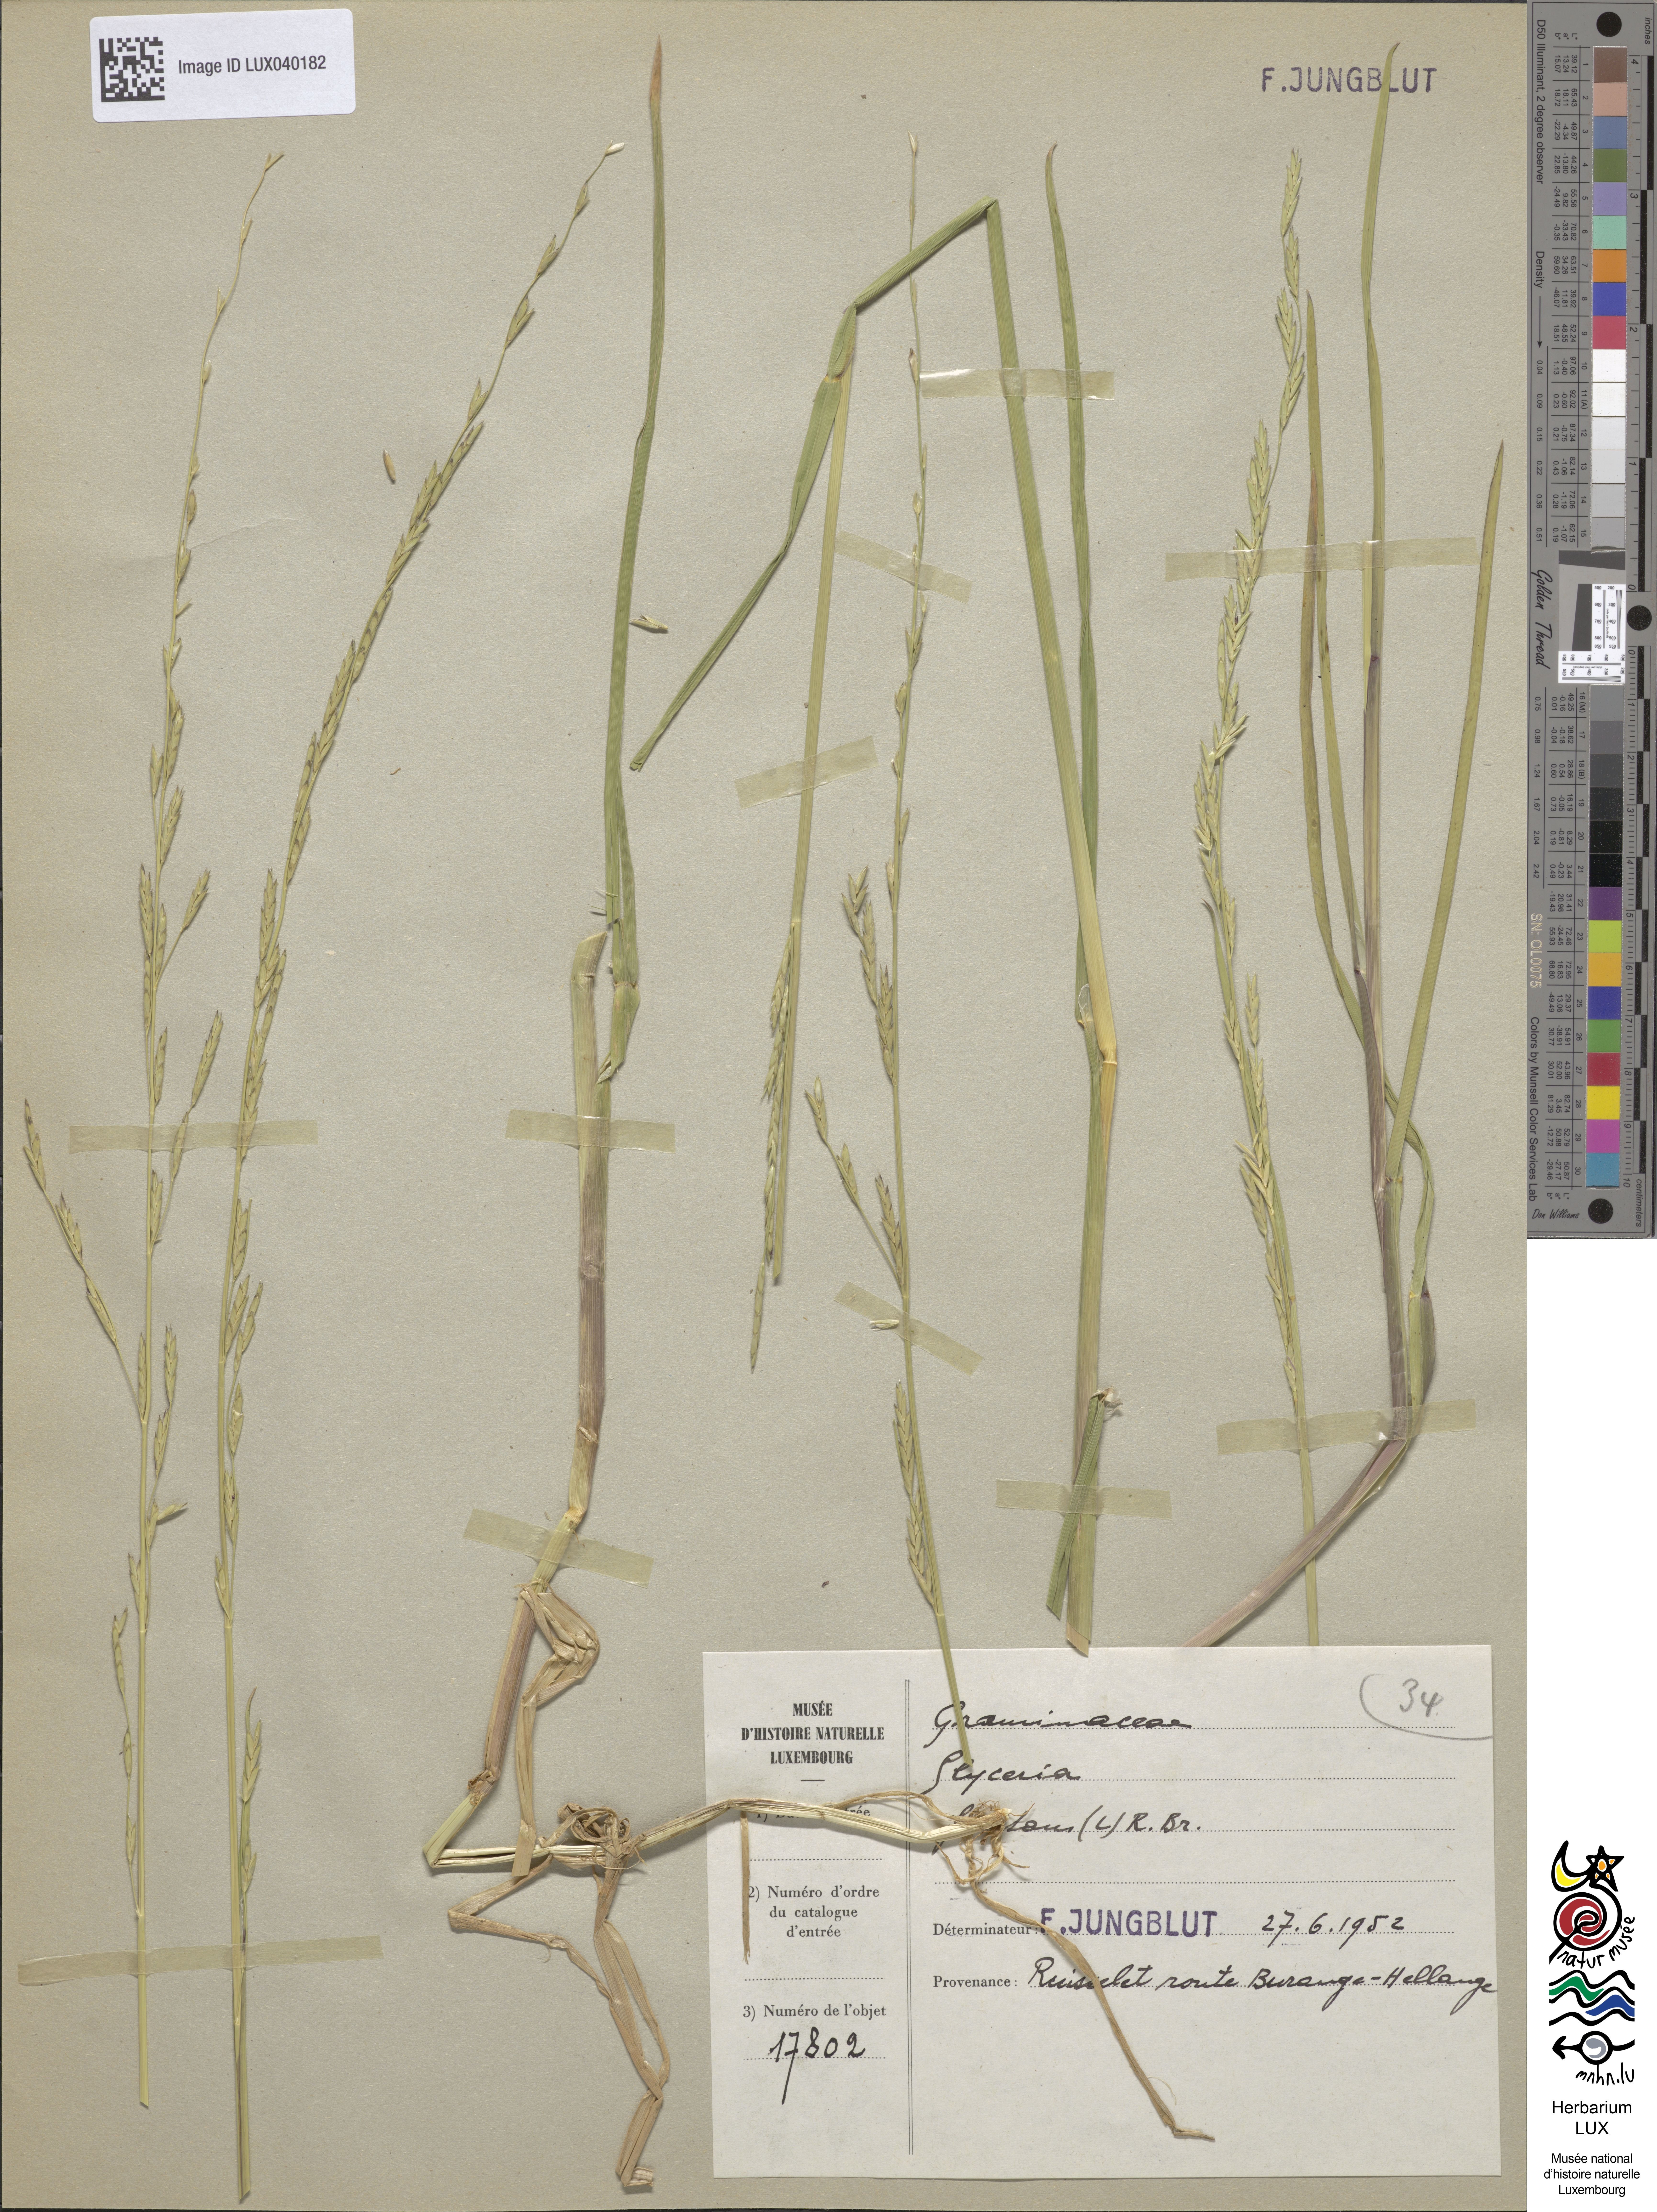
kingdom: Plantae
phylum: Tracheophyta
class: Liliopsida
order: Poales
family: Poaceae
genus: Glyceria
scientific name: Glyceria fluitans
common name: Floating sweet-grass
